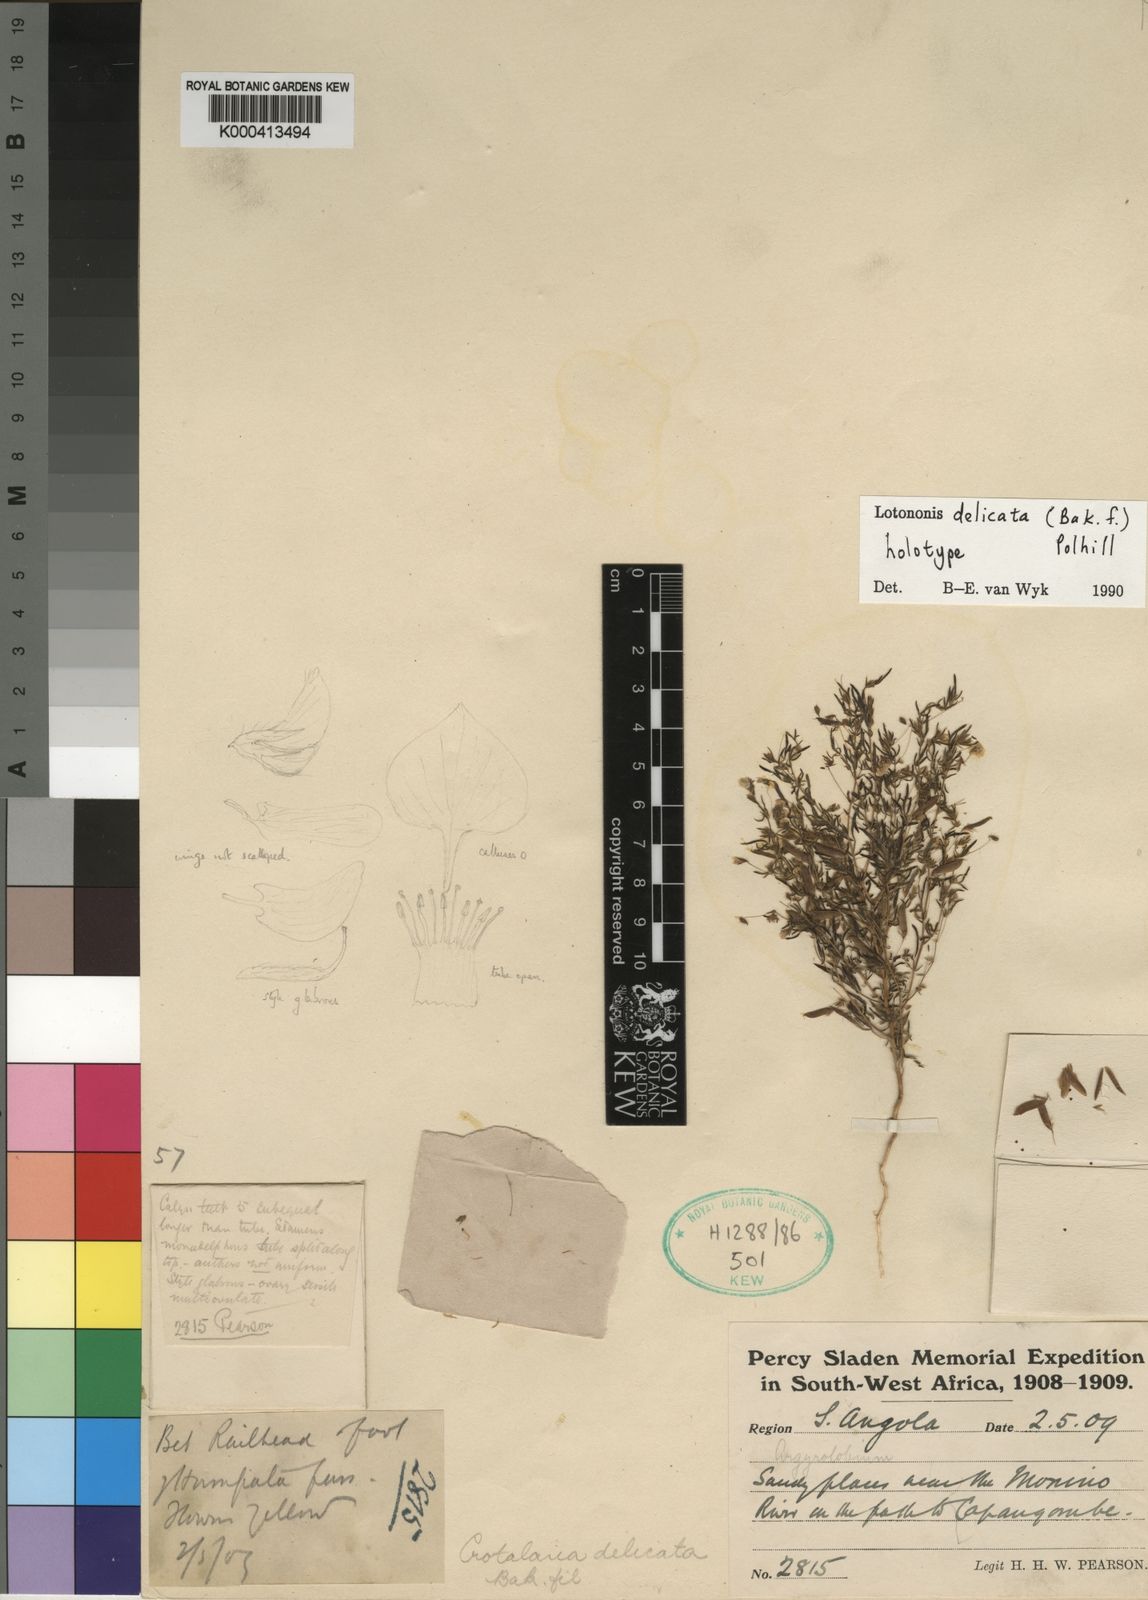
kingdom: Plantae
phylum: Tracheophyta
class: Magnoliopsida
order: Fabales
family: Fabaceae
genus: Lotononis
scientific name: Lotononis delicata
